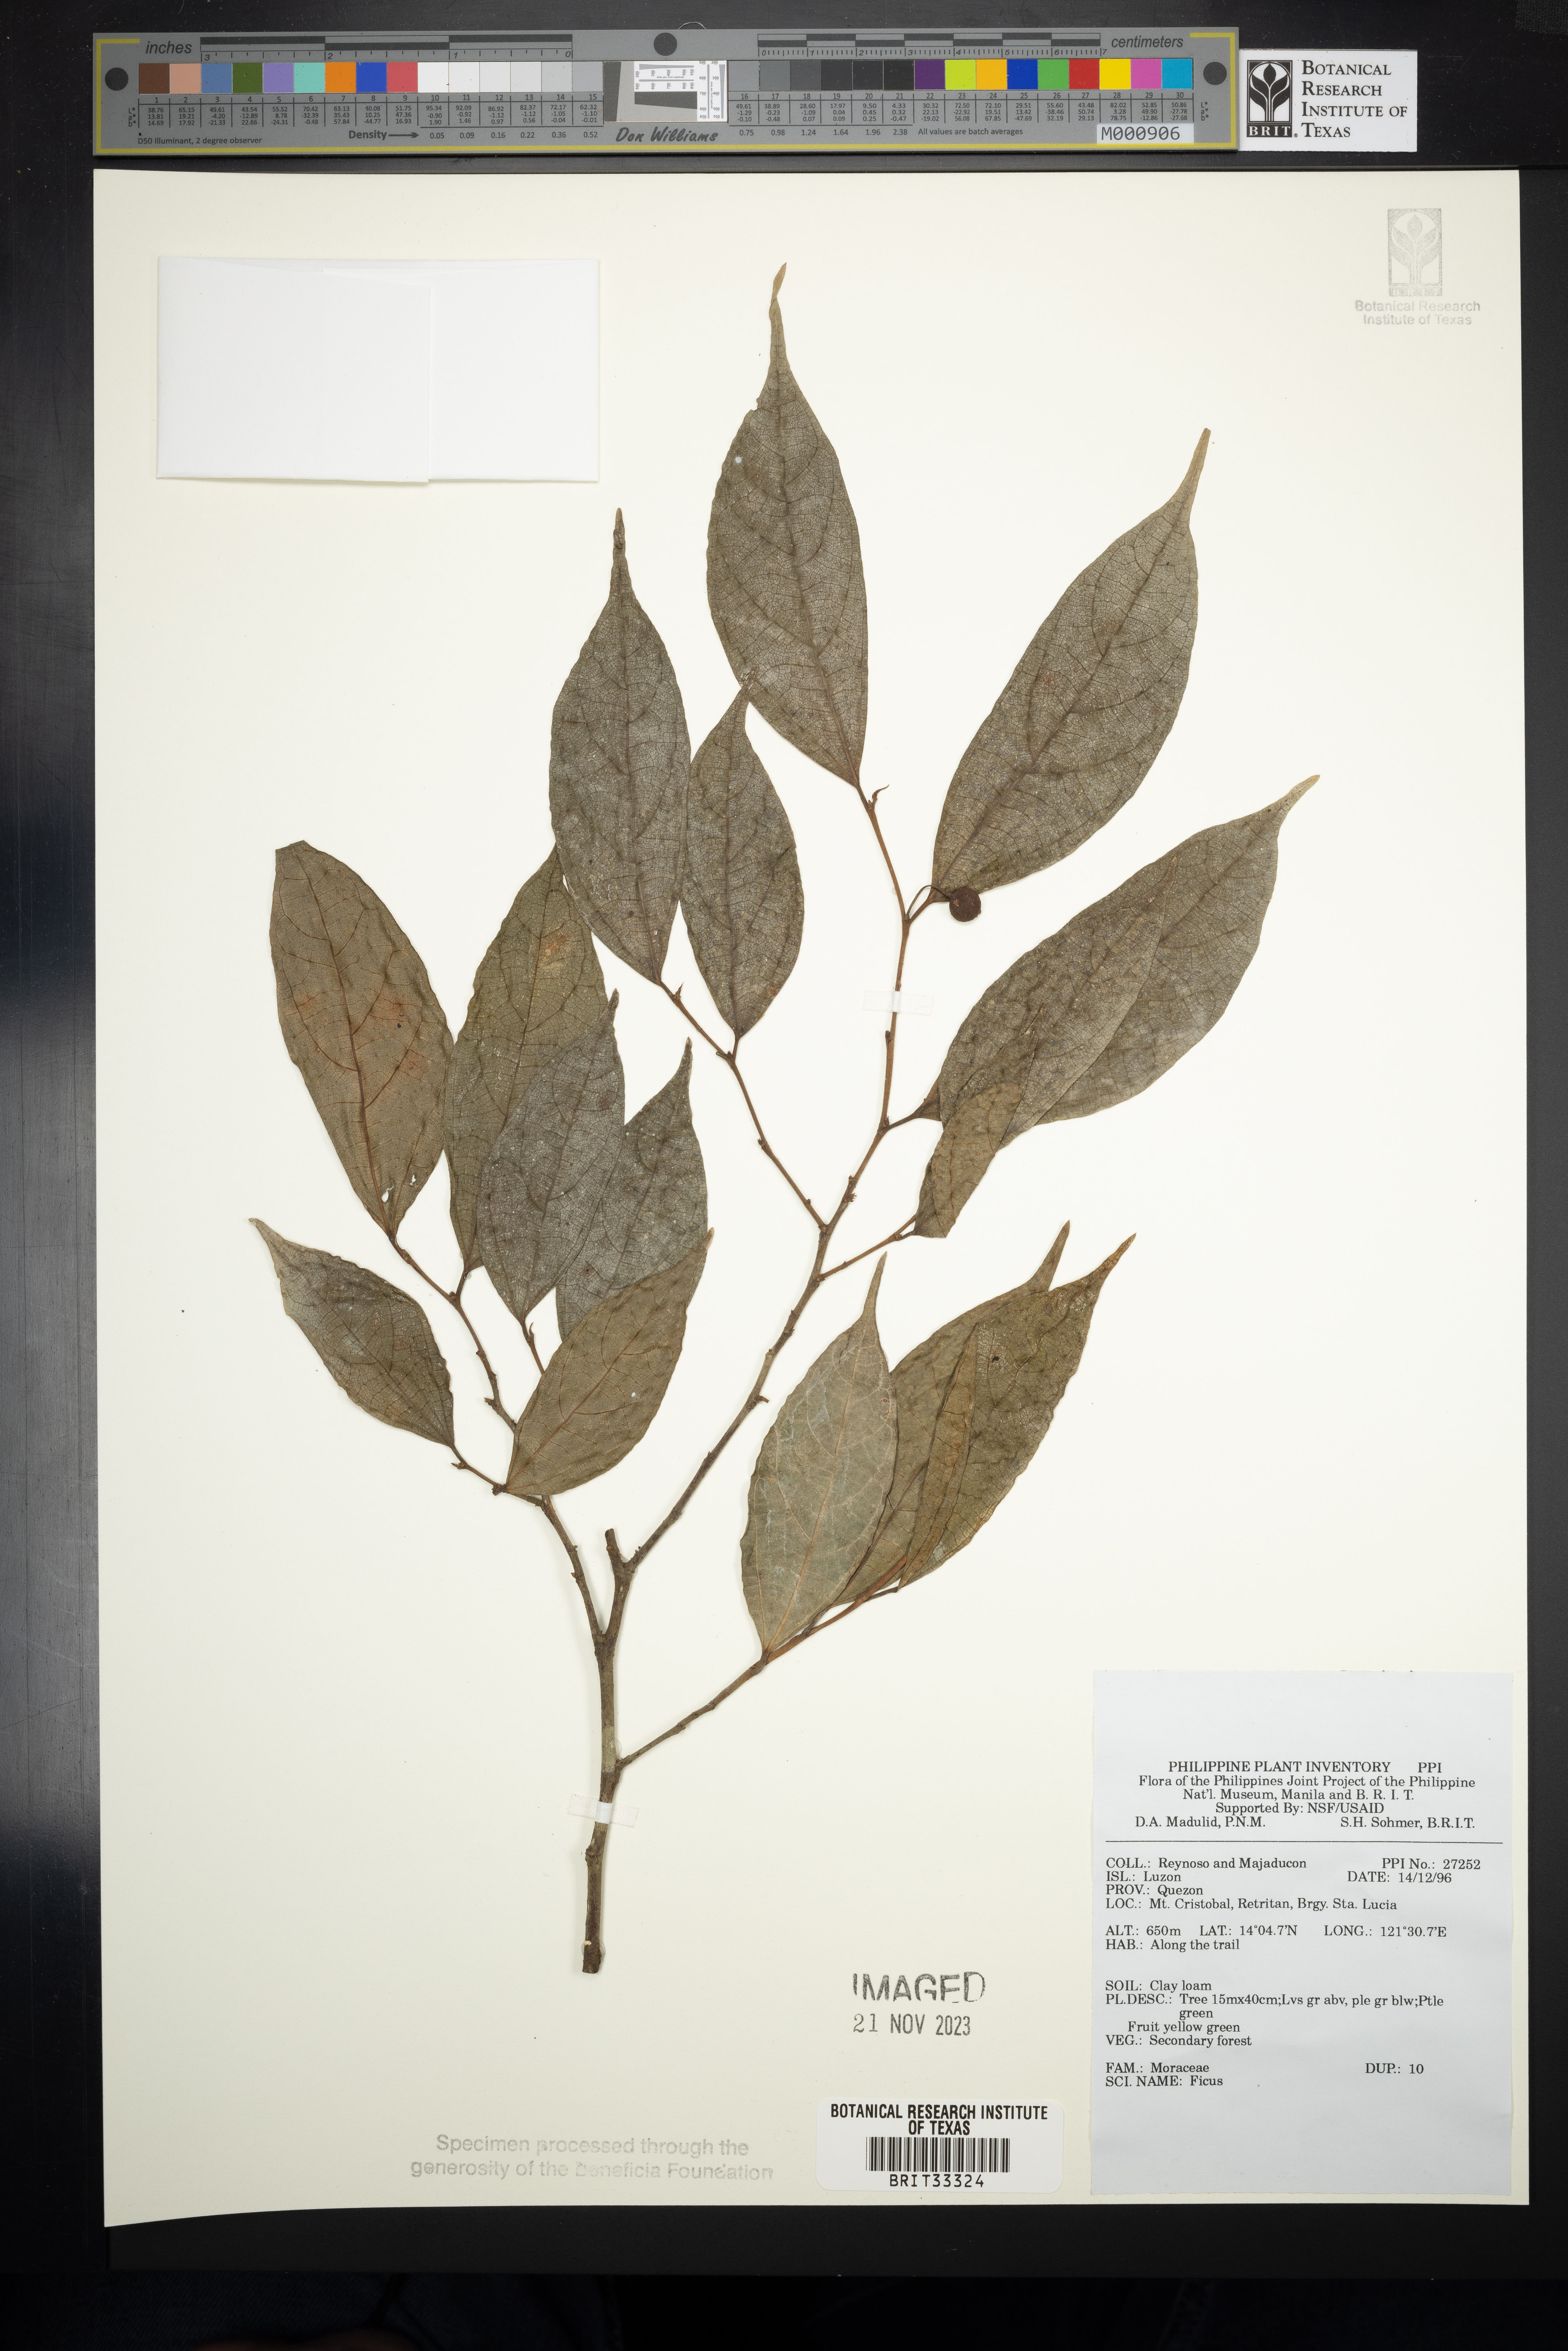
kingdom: Plantae
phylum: Tracheophyta
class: Magnoliopsida
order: Rosales
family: Moraceae
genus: Ficus
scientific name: Ficus
